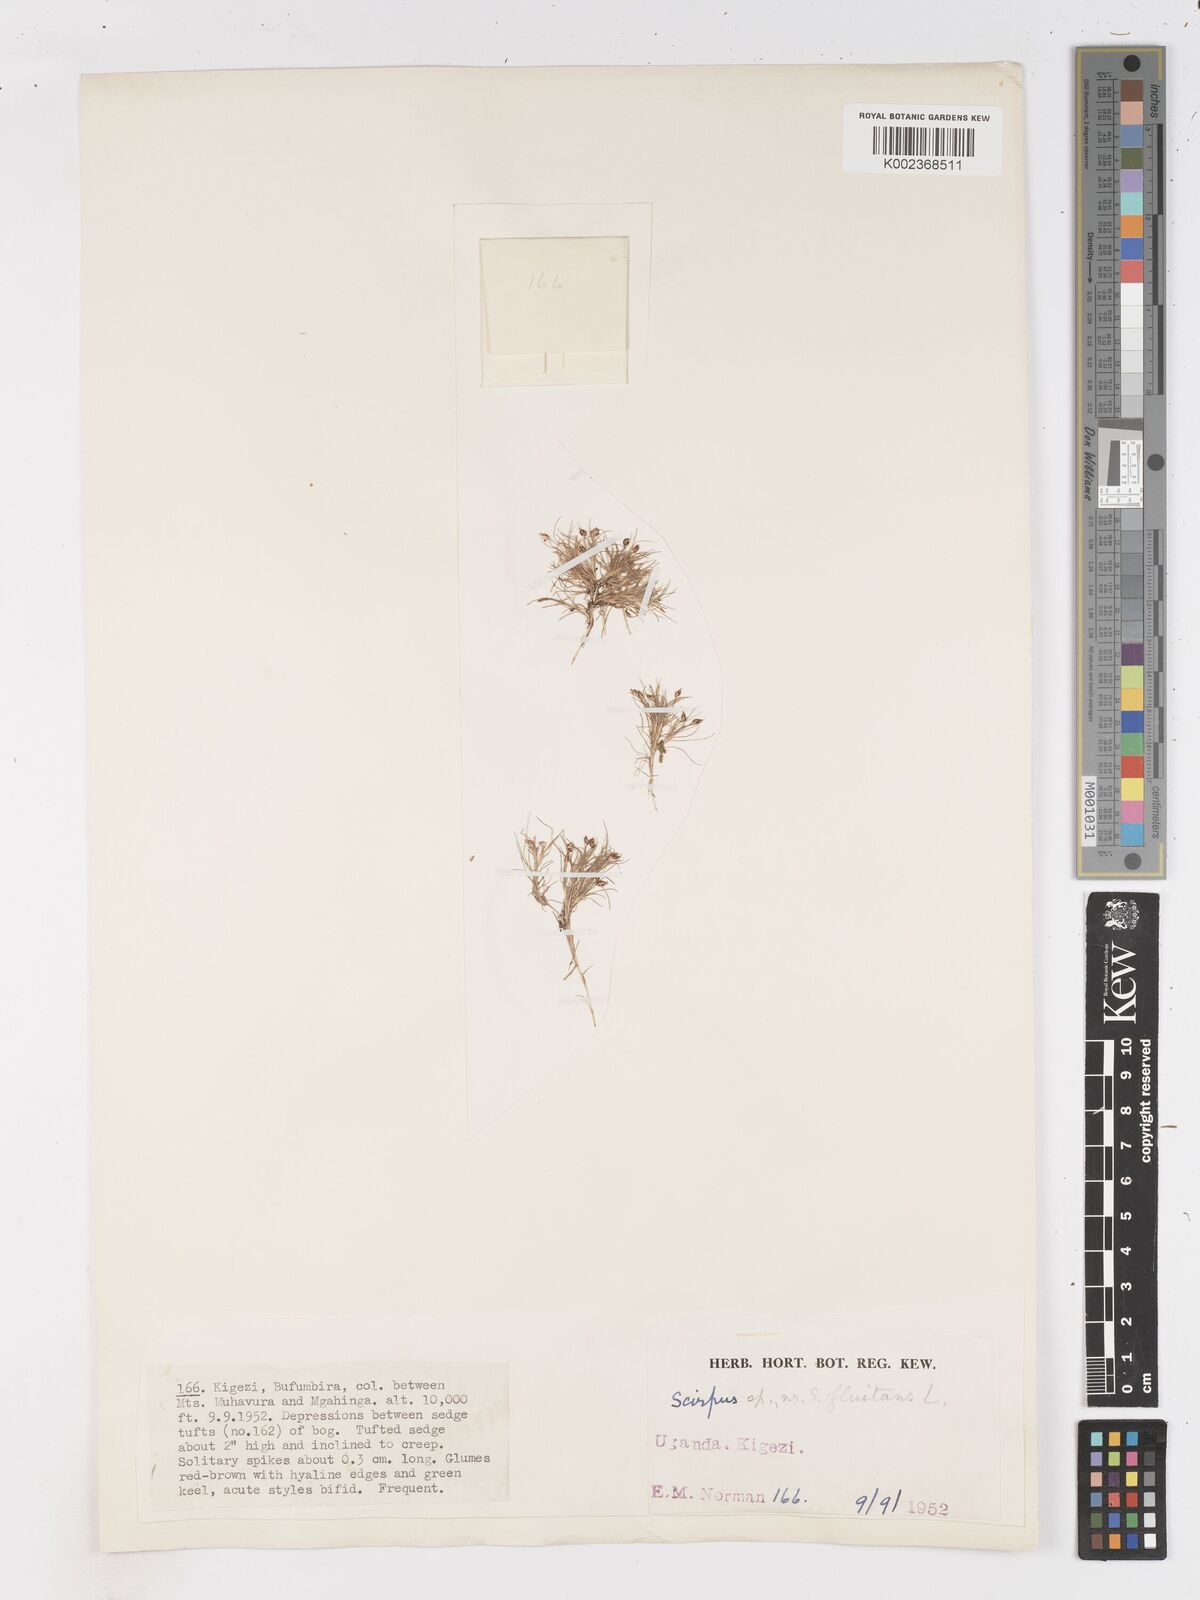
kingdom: Plantae
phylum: Tracheophyta
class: Liliopsida
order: Poales
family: Cyperaceae
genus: Isolepis
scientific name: Isolepis fluitans
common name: Floating club-rush
